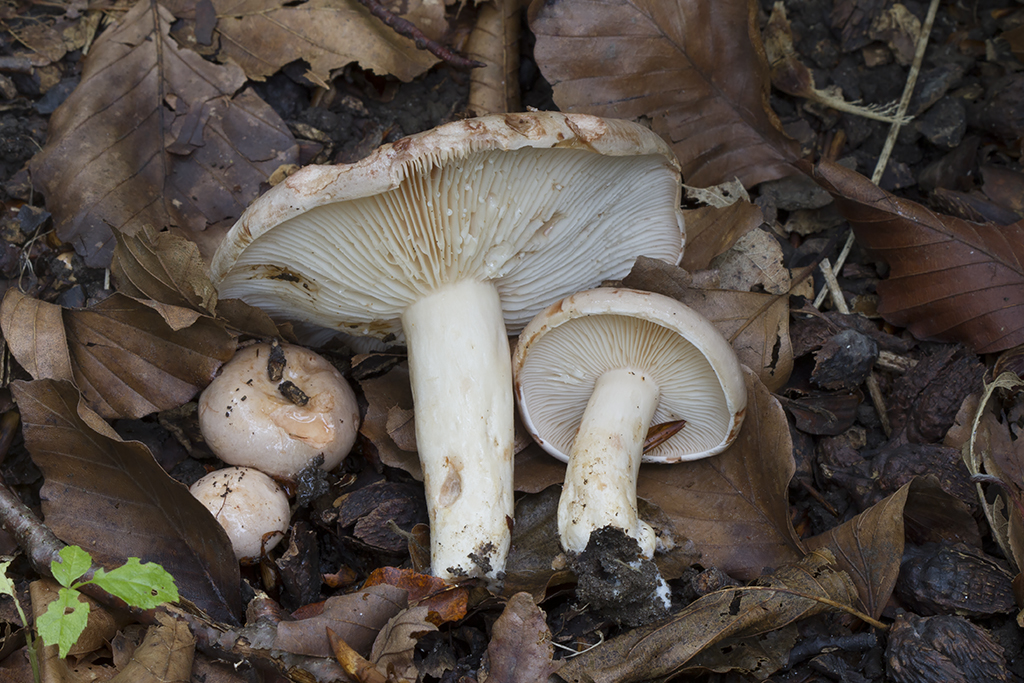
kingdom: Fungi
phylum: Basidiomycota
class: Agaricomycetes
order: Russulales
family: Russulaceae
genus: Lactarius
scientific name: Lactarius pallidus
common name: bleg mælkehat
